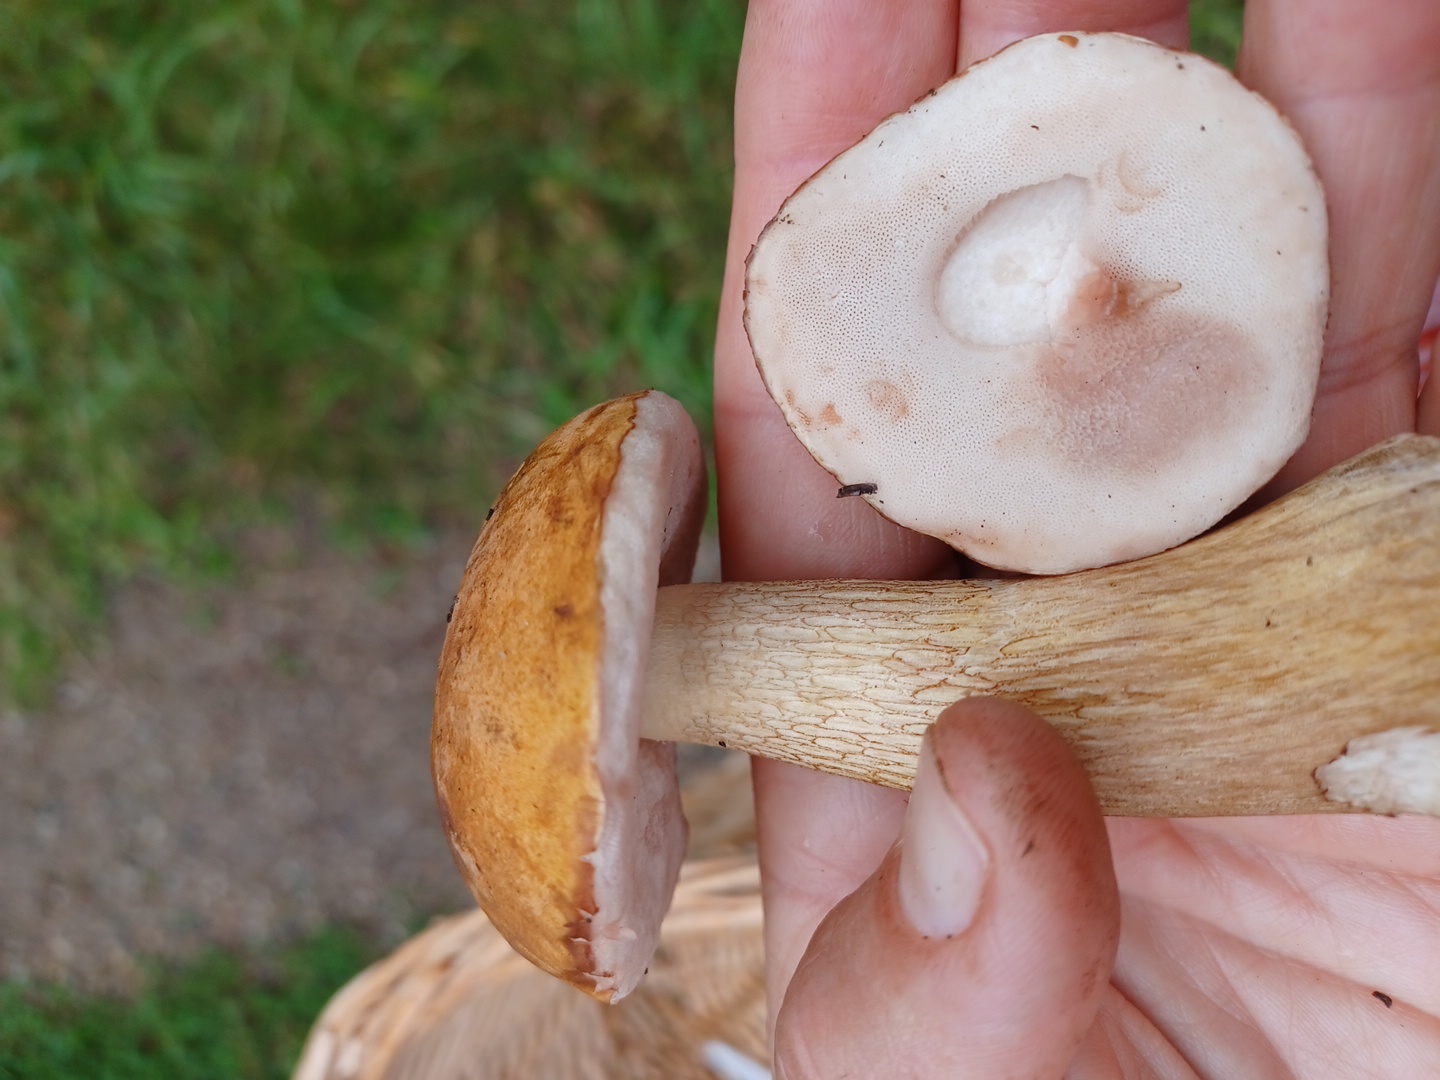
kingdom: Fungi
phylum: Basidiomycota
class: Agaricomycetes
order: Boletales
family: Boletaceae
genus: Tylopilus
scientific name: Tylopilus felleus
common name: galderørhat
